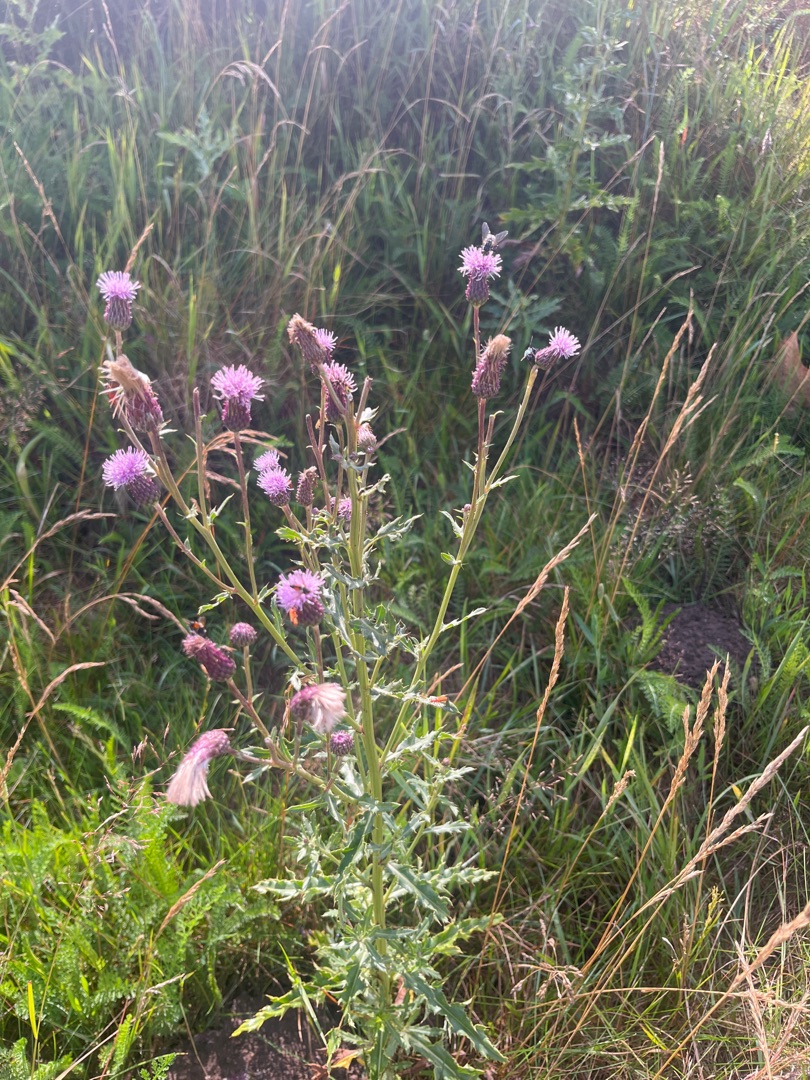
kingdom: Plantae
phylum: Tracheophyta
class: Magnoliopsida
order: Asterales
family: Asteraceae
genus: Cirsium
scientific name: Cirsium arvense
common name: Ager-tidsel
